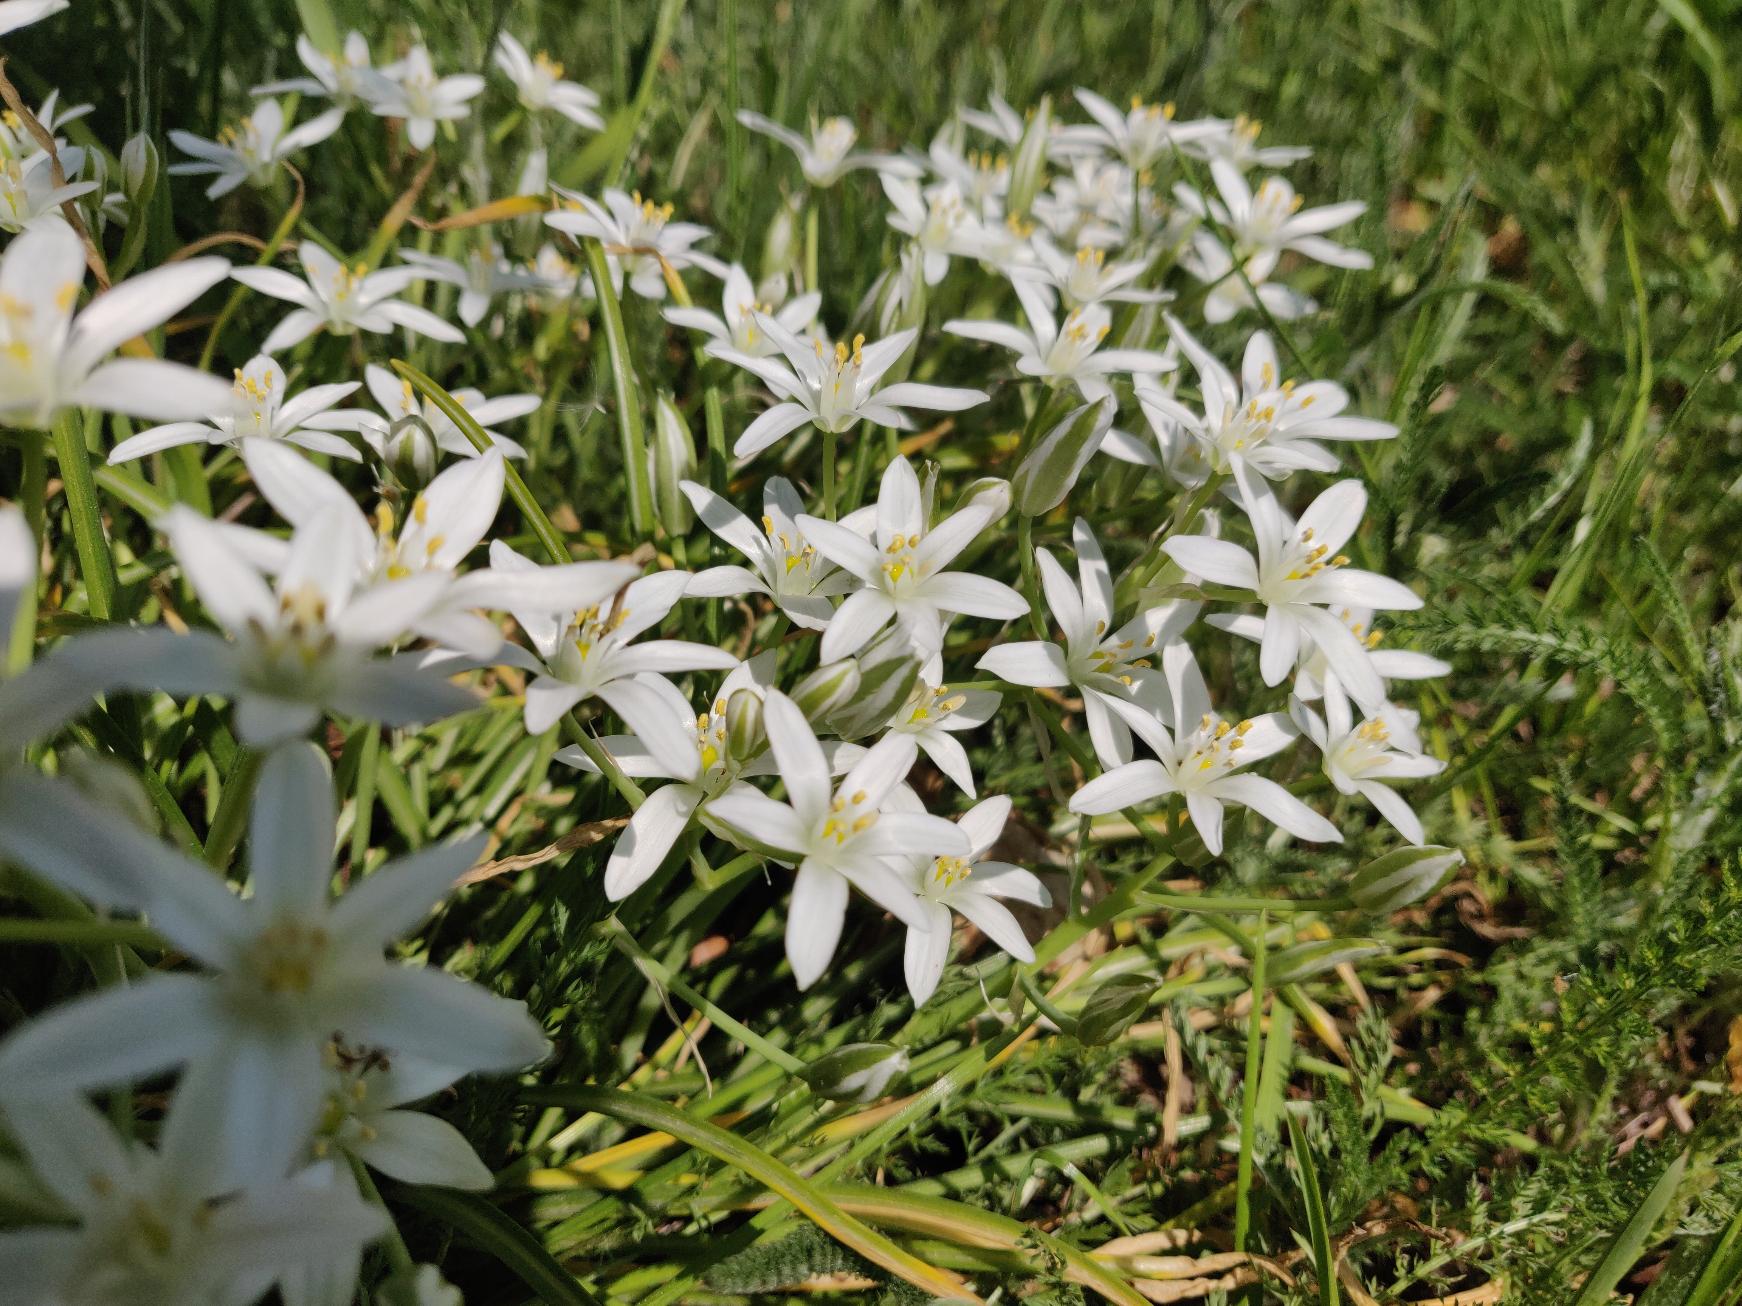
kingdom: Plantae
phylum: Tracheophyta
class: Liliopsida
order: Asparagales
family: Asparagaceae
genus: Ornithogalum
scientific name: Ornithogalum umbellatum
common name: Kost-fuglemælk
